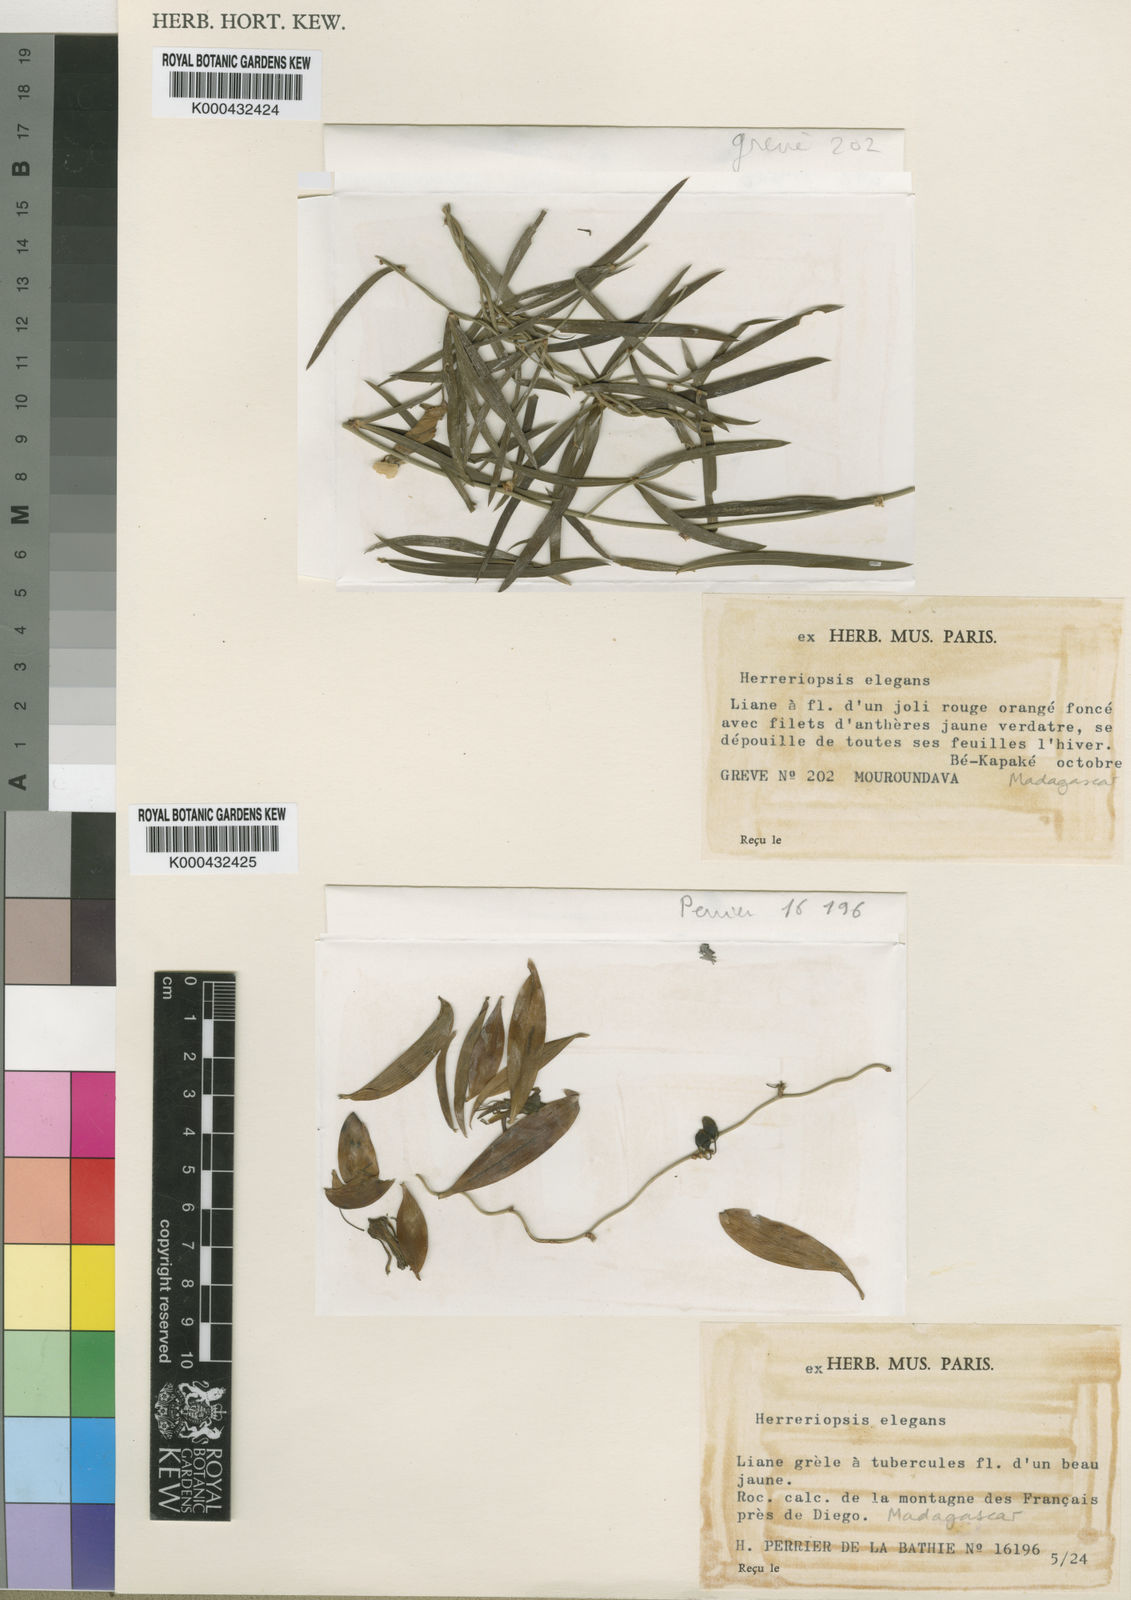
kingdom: Plantae
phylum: Tracheophyta
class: Liliopsida
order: Asparagales
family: Asparagaceae
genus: Herreriopsis
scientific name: Herreriopsis elegans
